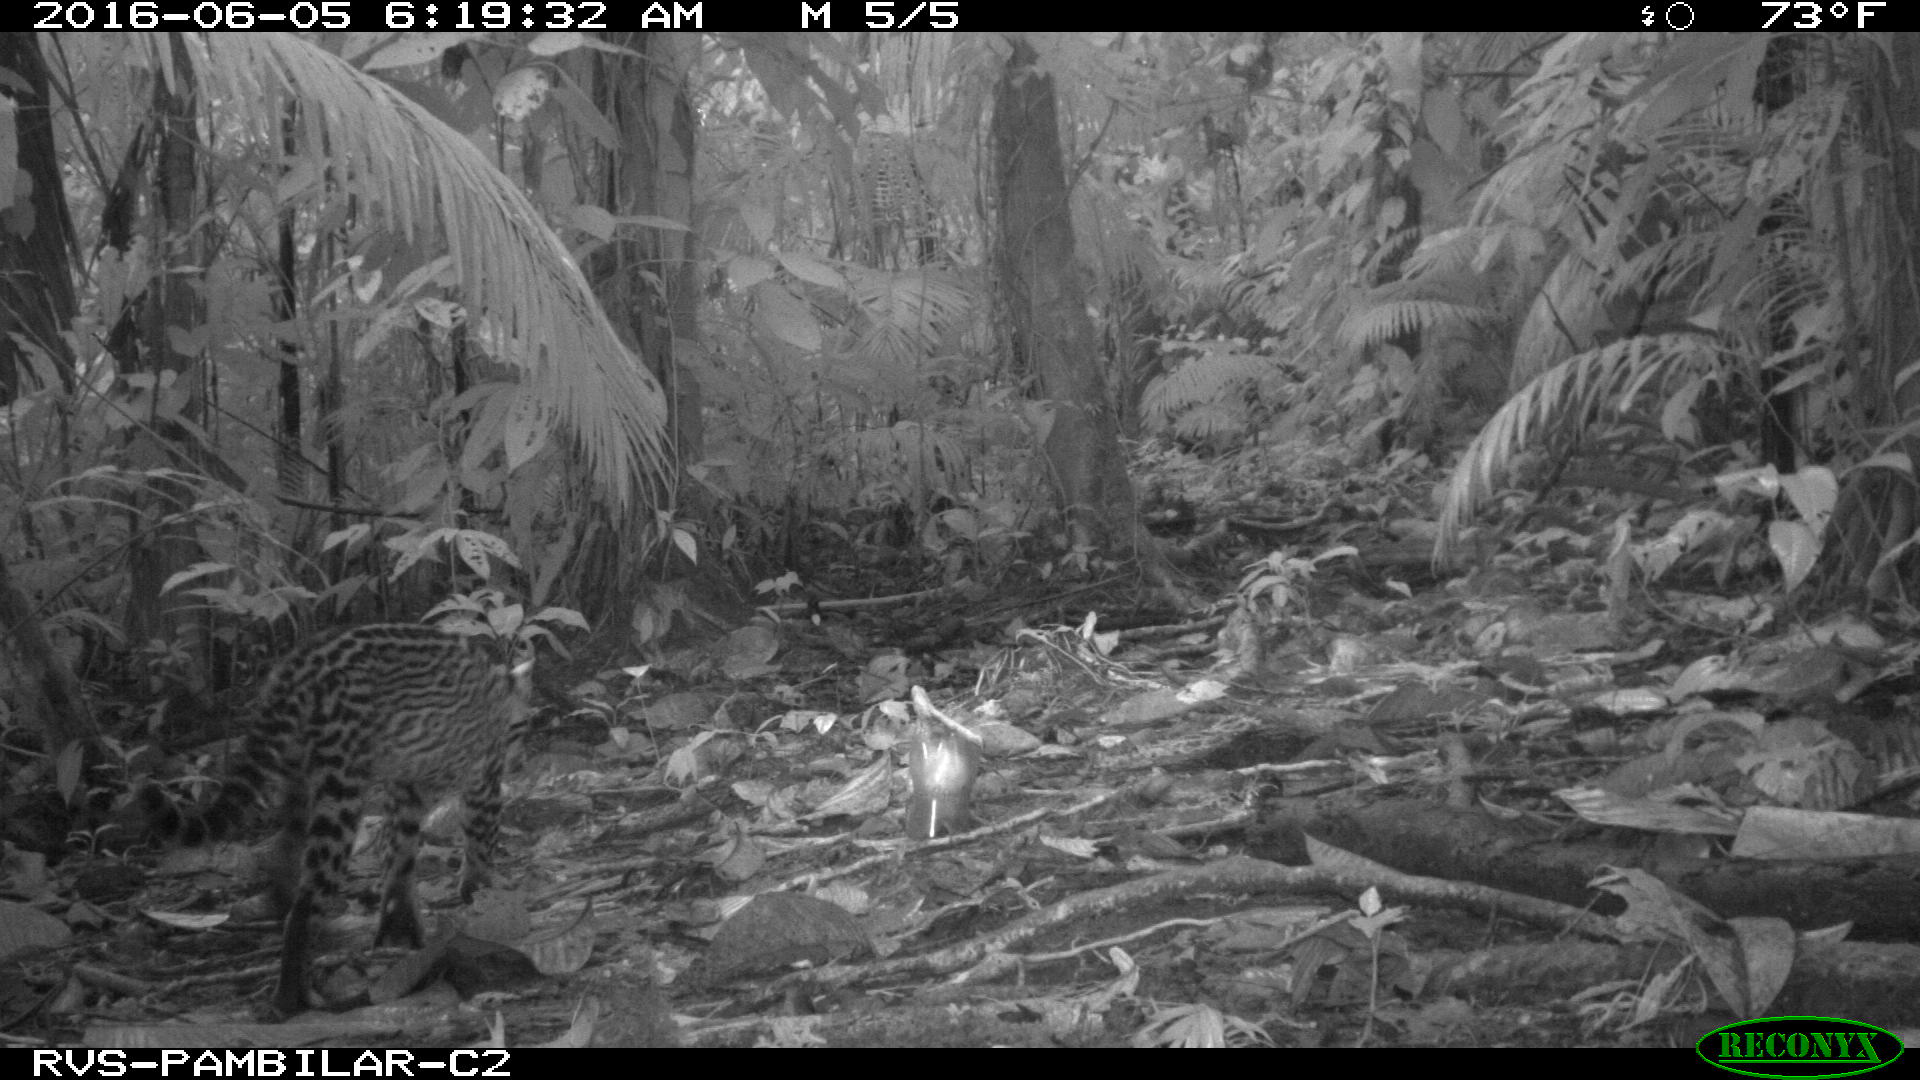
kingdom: Animalia
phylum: Chordata
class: Mammalia
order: Carnivora
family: Felidae
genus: Leopardus
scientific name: Leopardus pardalis
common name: Ocelot
